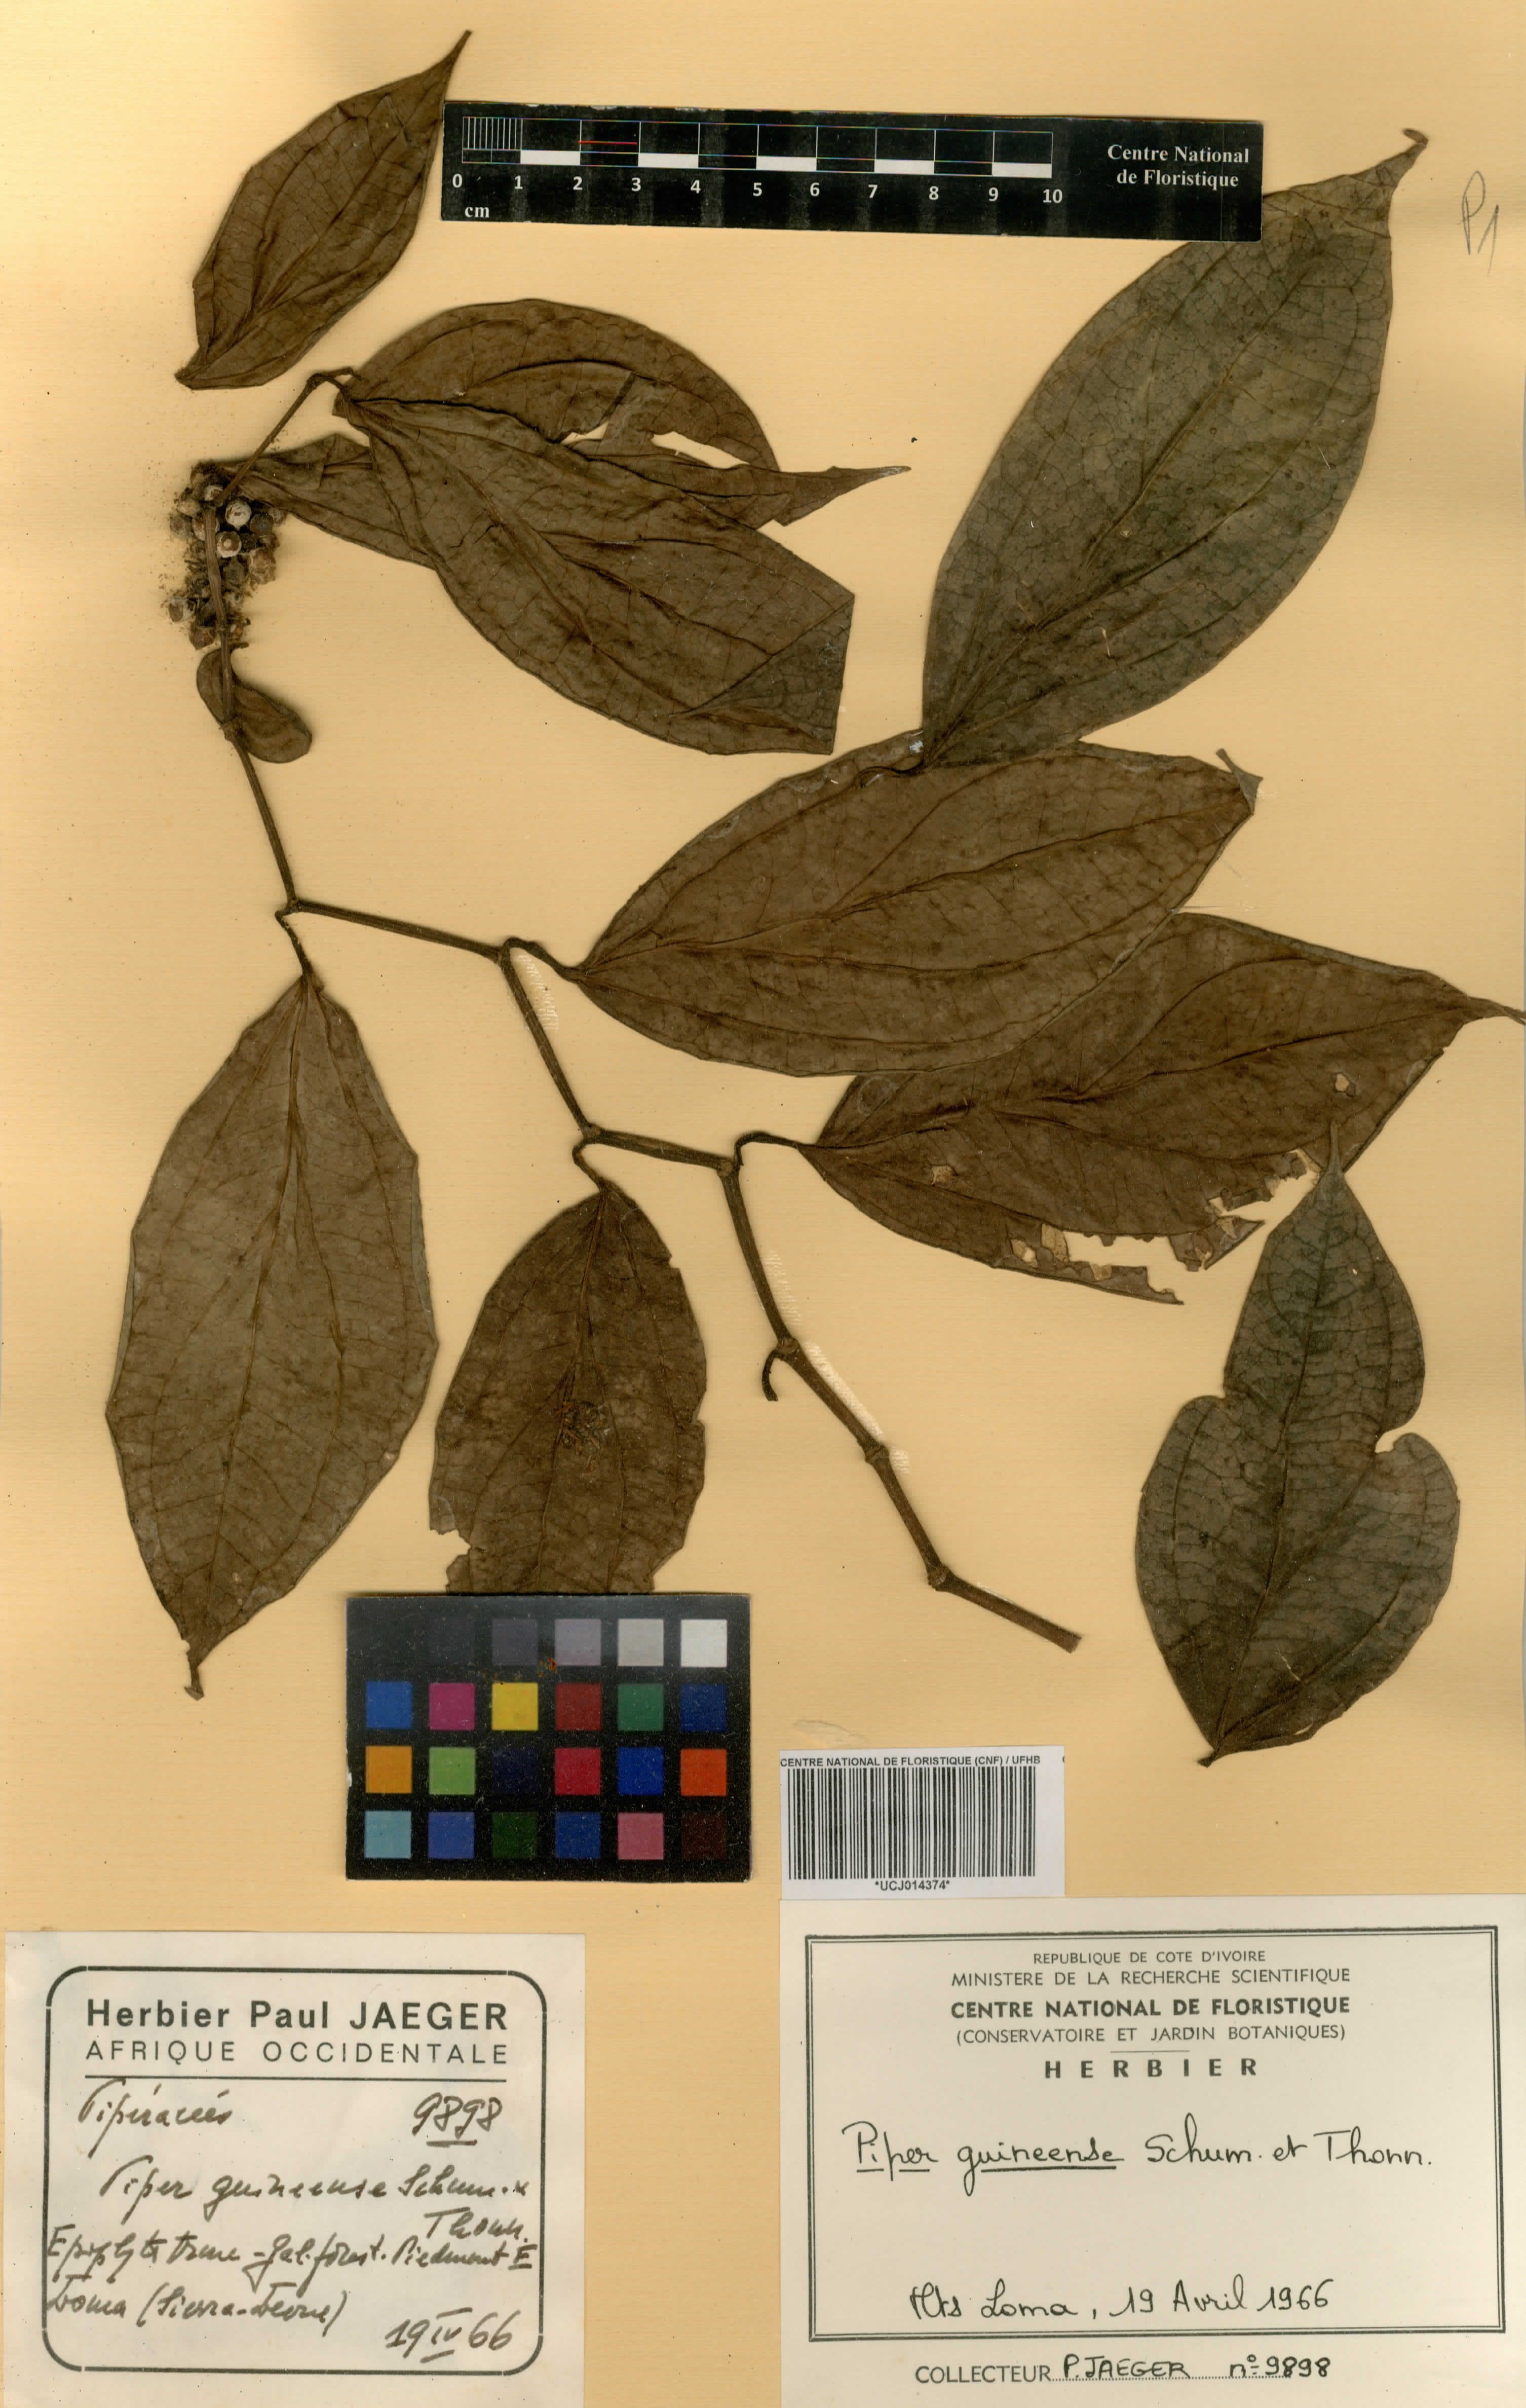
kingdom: Plantae
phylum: Tracheophyta
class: Magnoliopsida
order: Piperales
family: Piperaceae
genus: Piper
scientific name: Piper guineense
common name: Benin pepper
